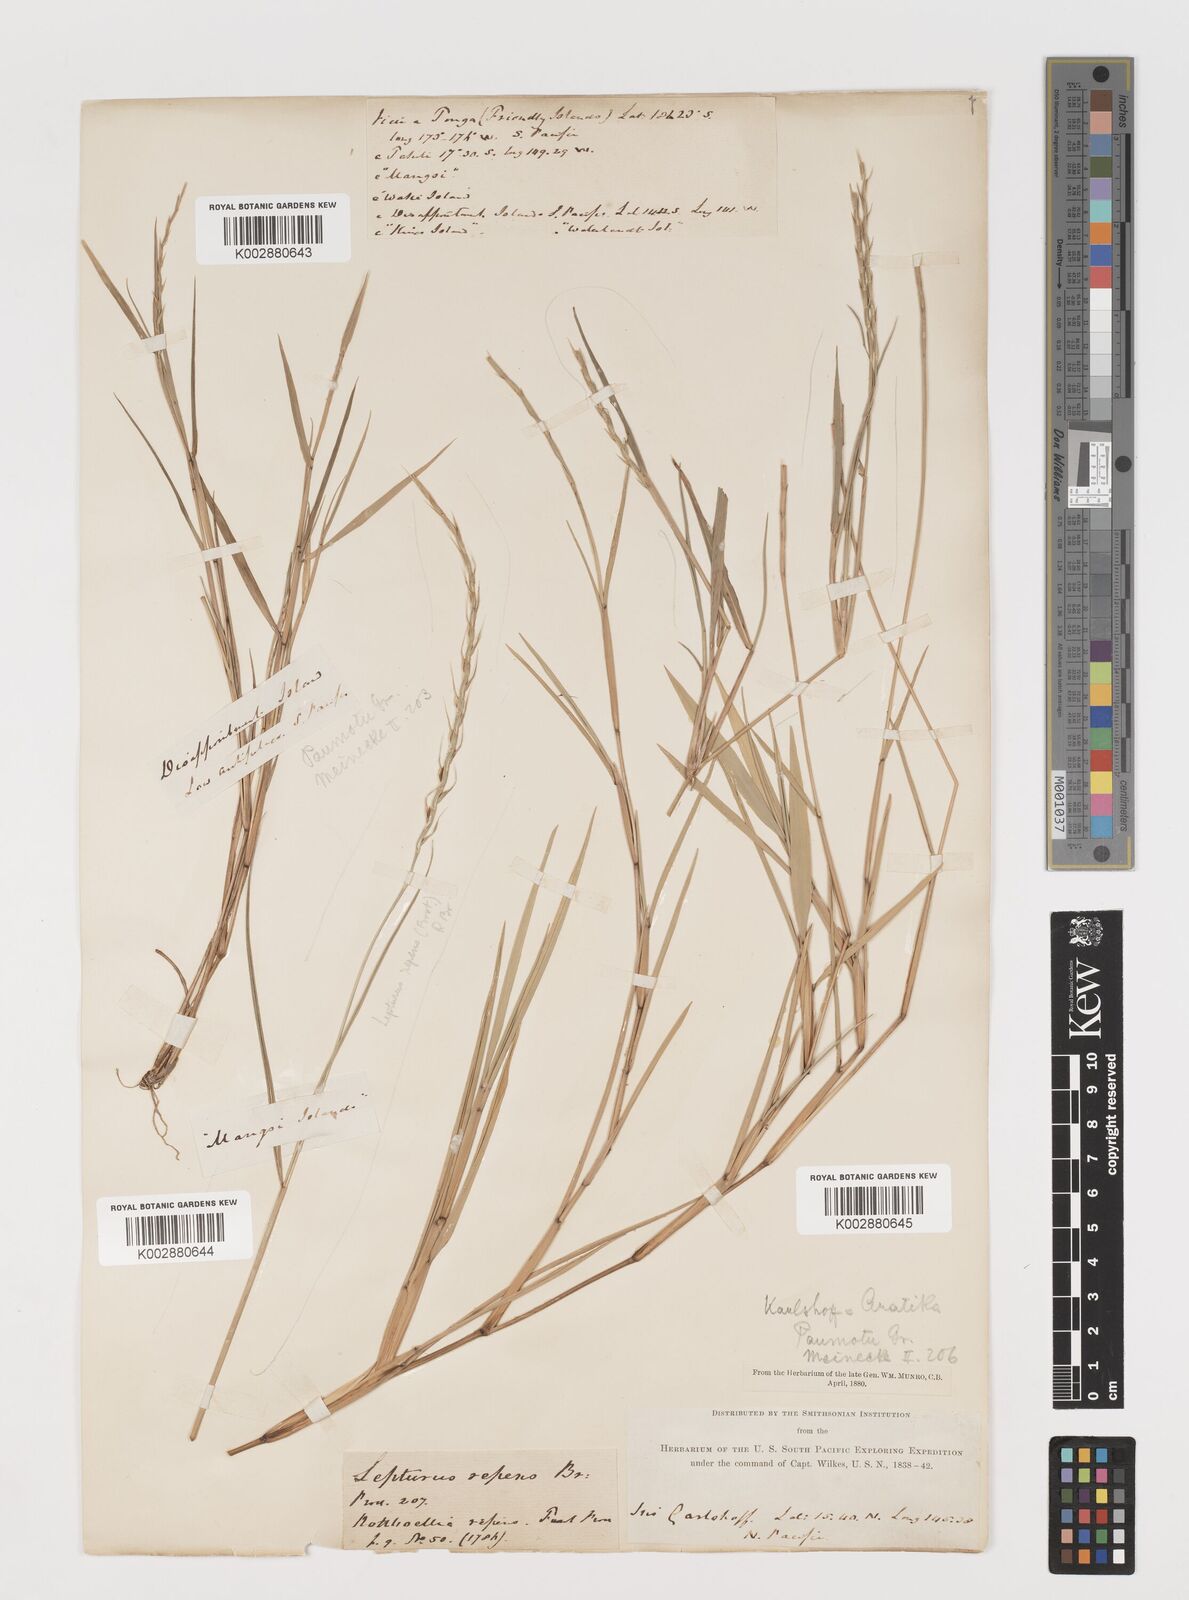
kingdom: Plantae
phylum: Tracheophyta
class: Liliopsida
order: Poales
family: Poaceae
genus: Lepturus
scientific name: Lepturus
